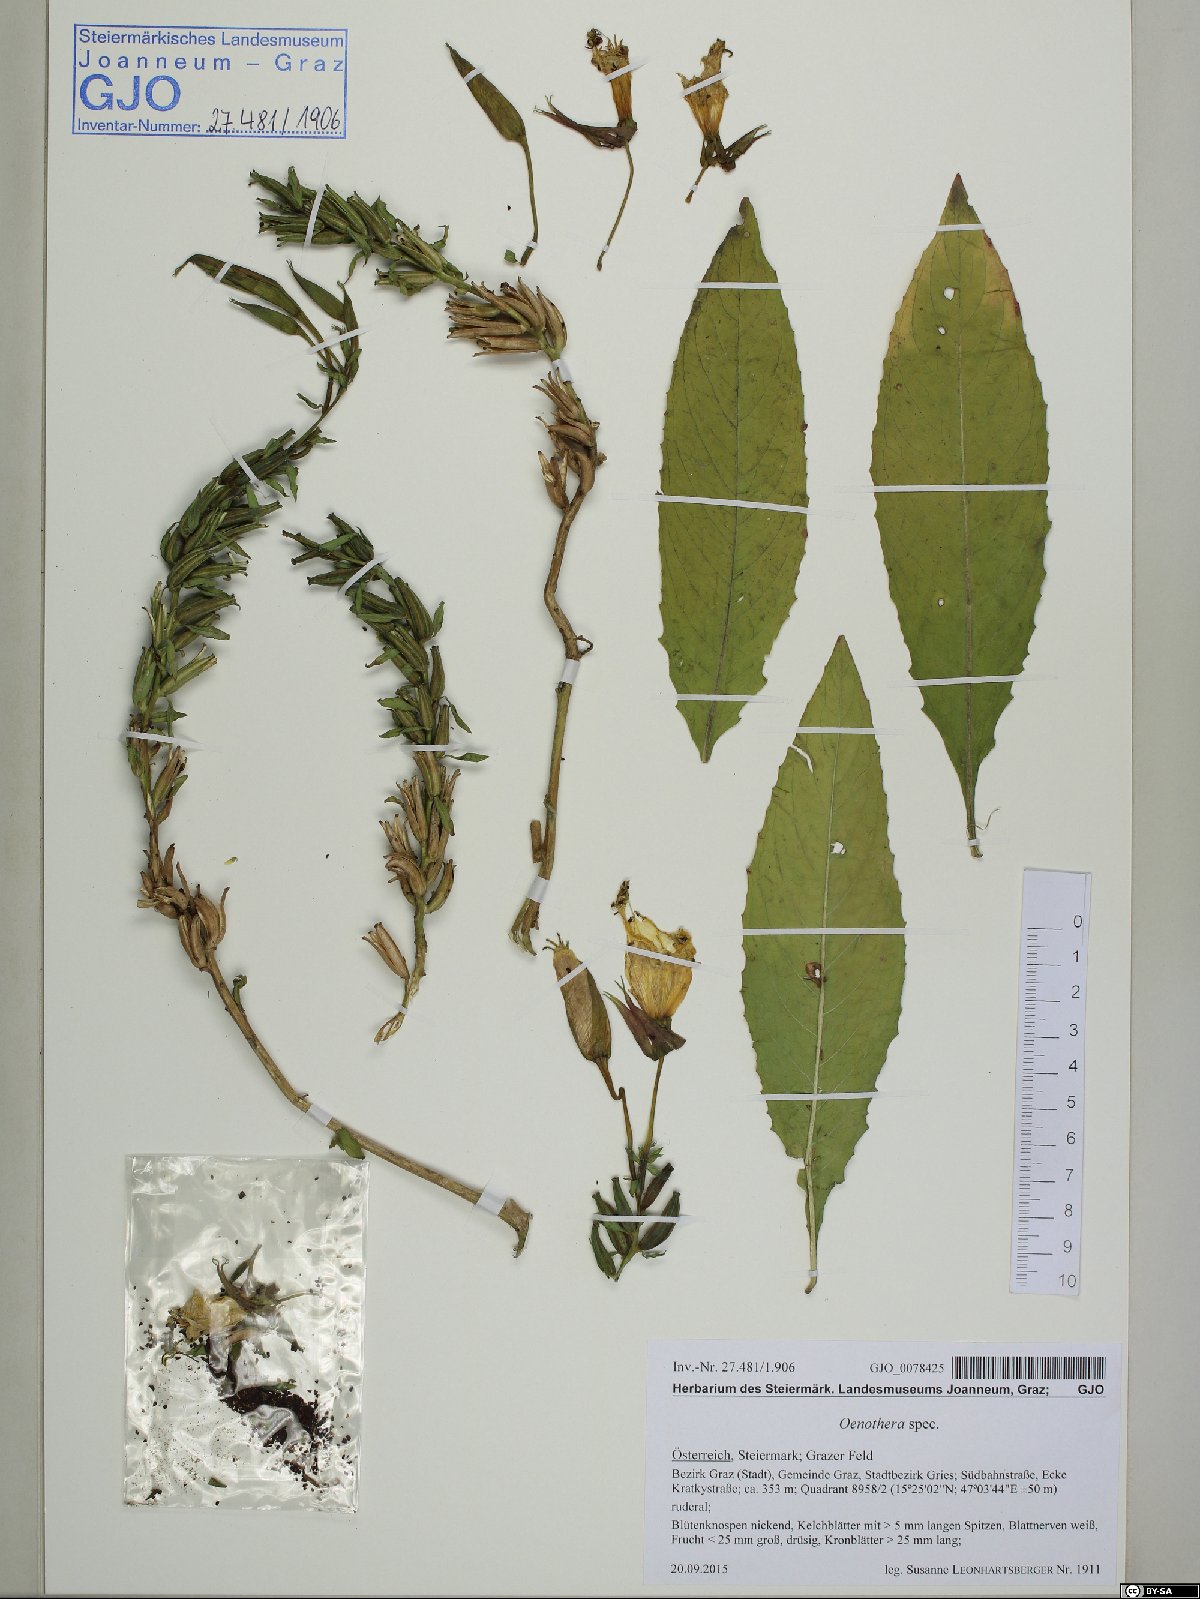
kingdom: Plantae
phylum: Tracheophyta
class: Magnoliopsida
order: Myrtales
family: Onagraceae
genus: Oenothera
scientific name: Oenothera
